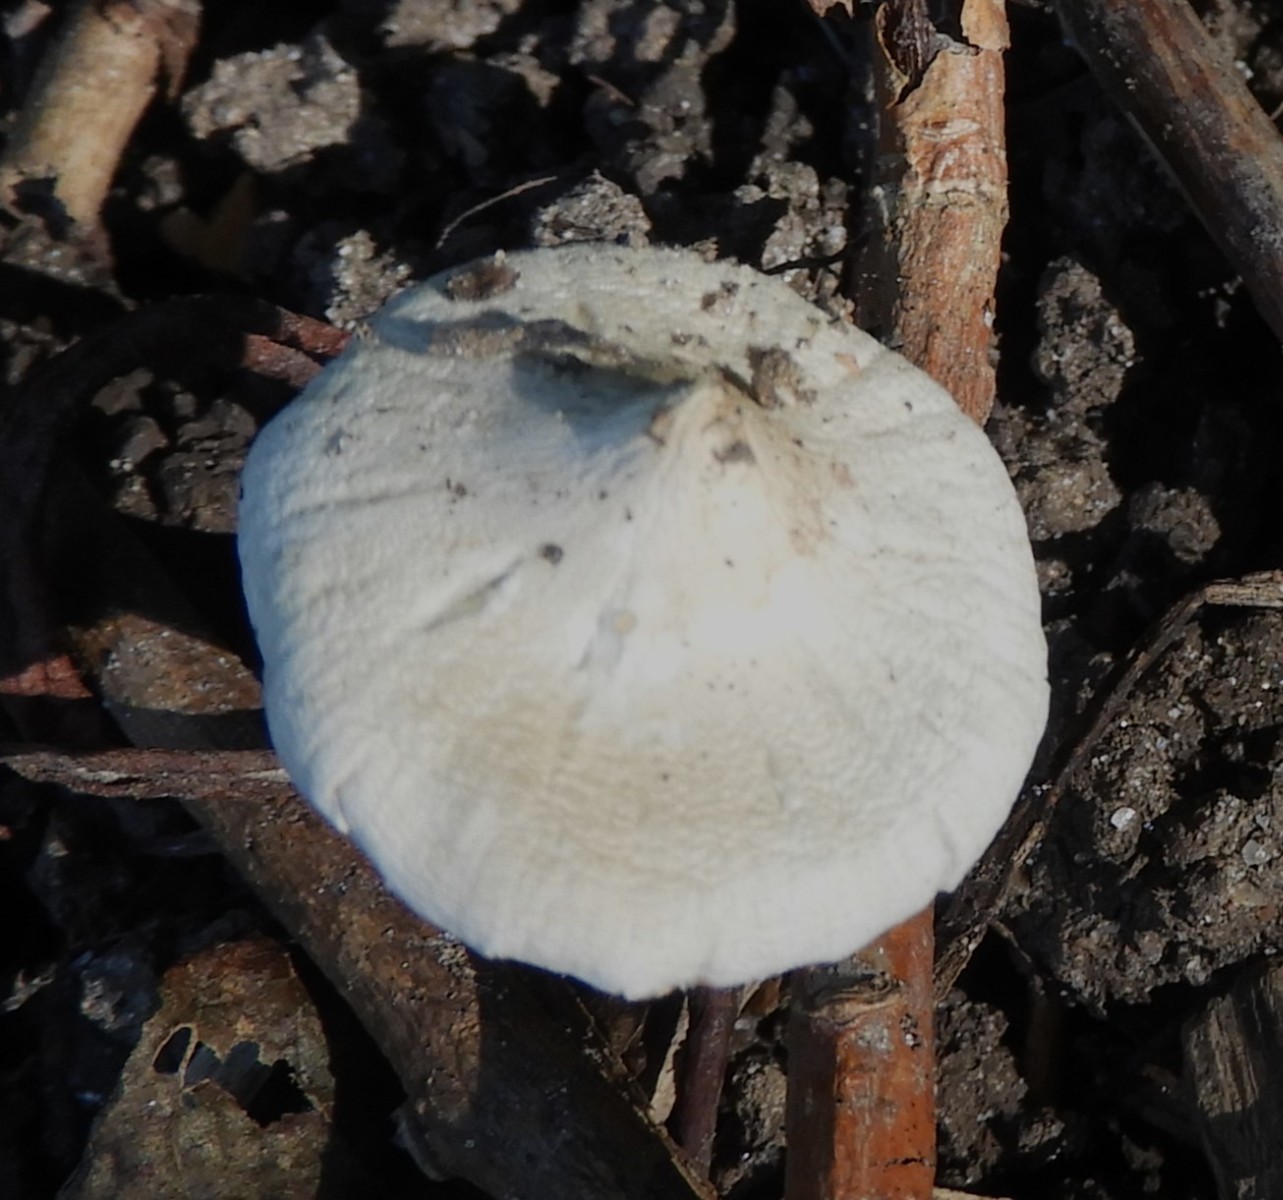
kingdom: Fungi
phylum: Basidiomycota
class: Agaricomycetes
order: Agaricales
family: Inocybaceae
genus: Inocybe
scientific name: Inocybe
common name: almindelig trævlhat
